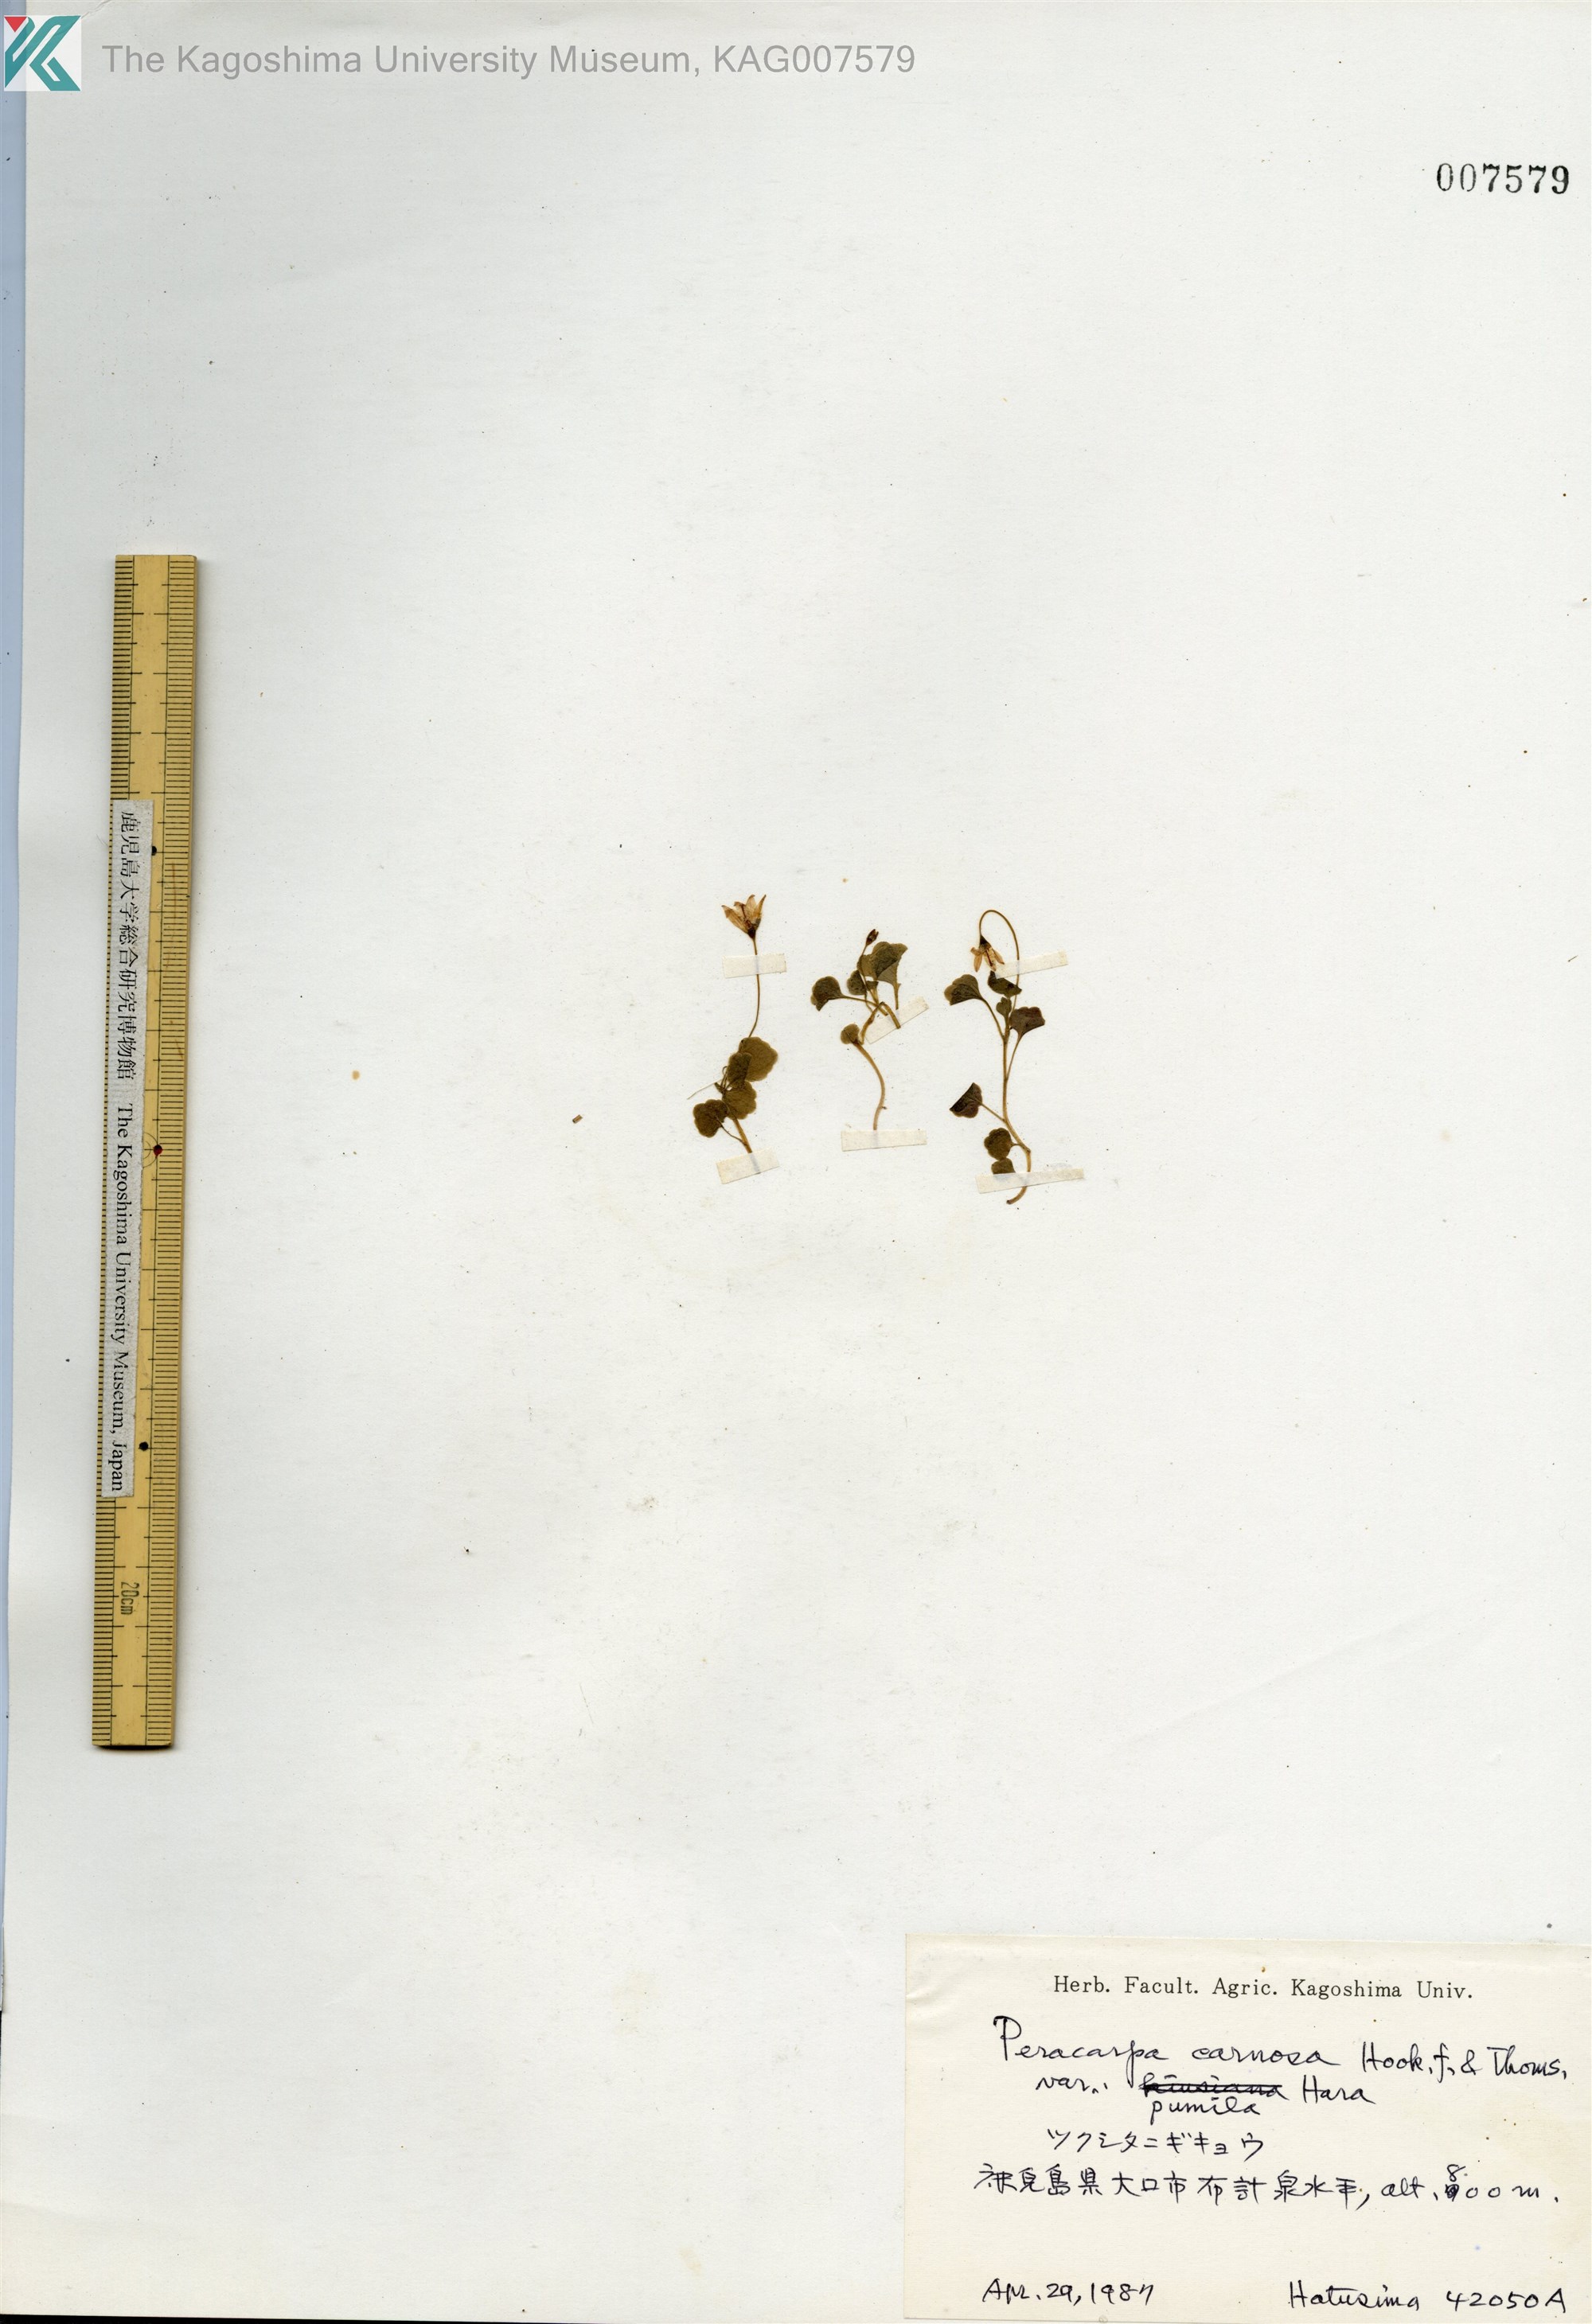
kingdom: Plantae
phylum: Tracheophyta
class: Magnoliopsida
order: Asterales
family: Campanulaceae
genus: Peracarpa
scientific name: Peracarpa carnosa
